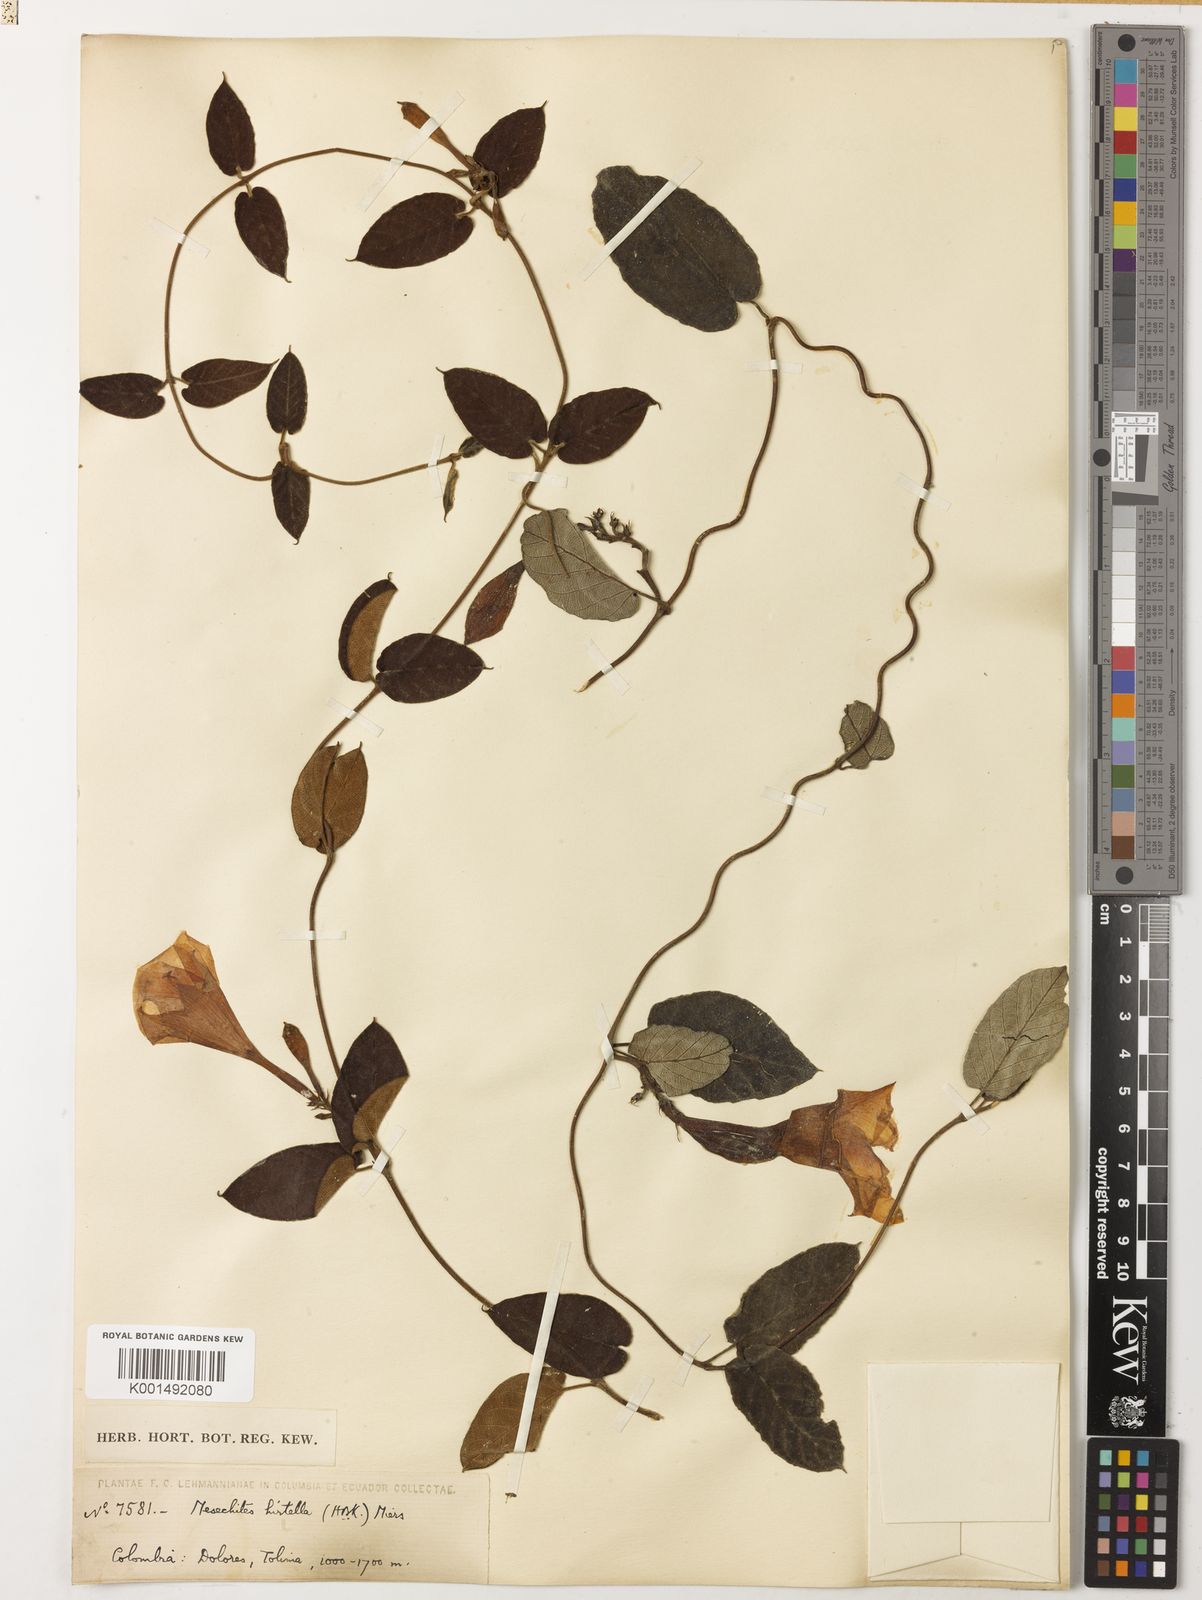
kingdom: Plantae
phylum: Tracheophyta
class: Magnoliopsida
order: Gentianales
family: Apocynaceae
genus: Mandevilla
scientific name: Mandevilla subsagittata
